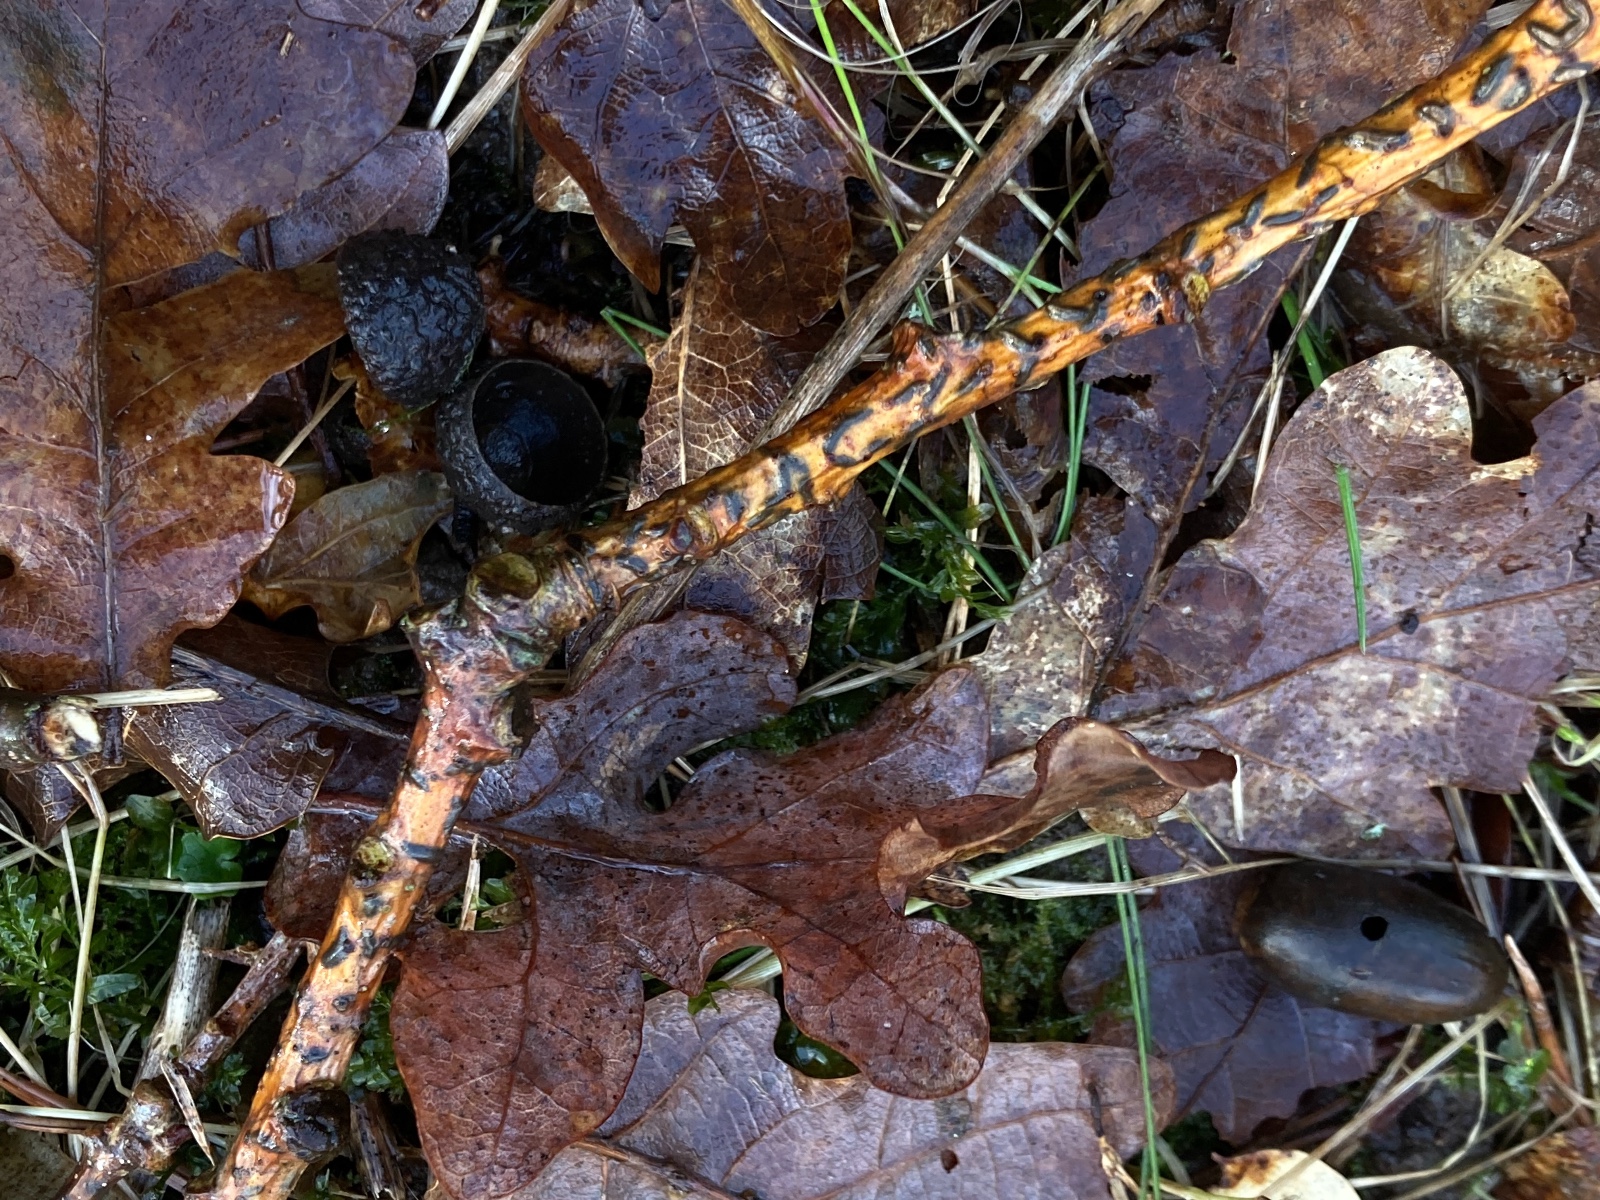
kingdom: Fungi
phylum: Ascomycota
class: Leotiomycetes
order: Rhytismatales
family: Rhytismataceae
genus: Colpoma
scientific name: Colpoma quercinum
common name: ege-sprækkeskive
